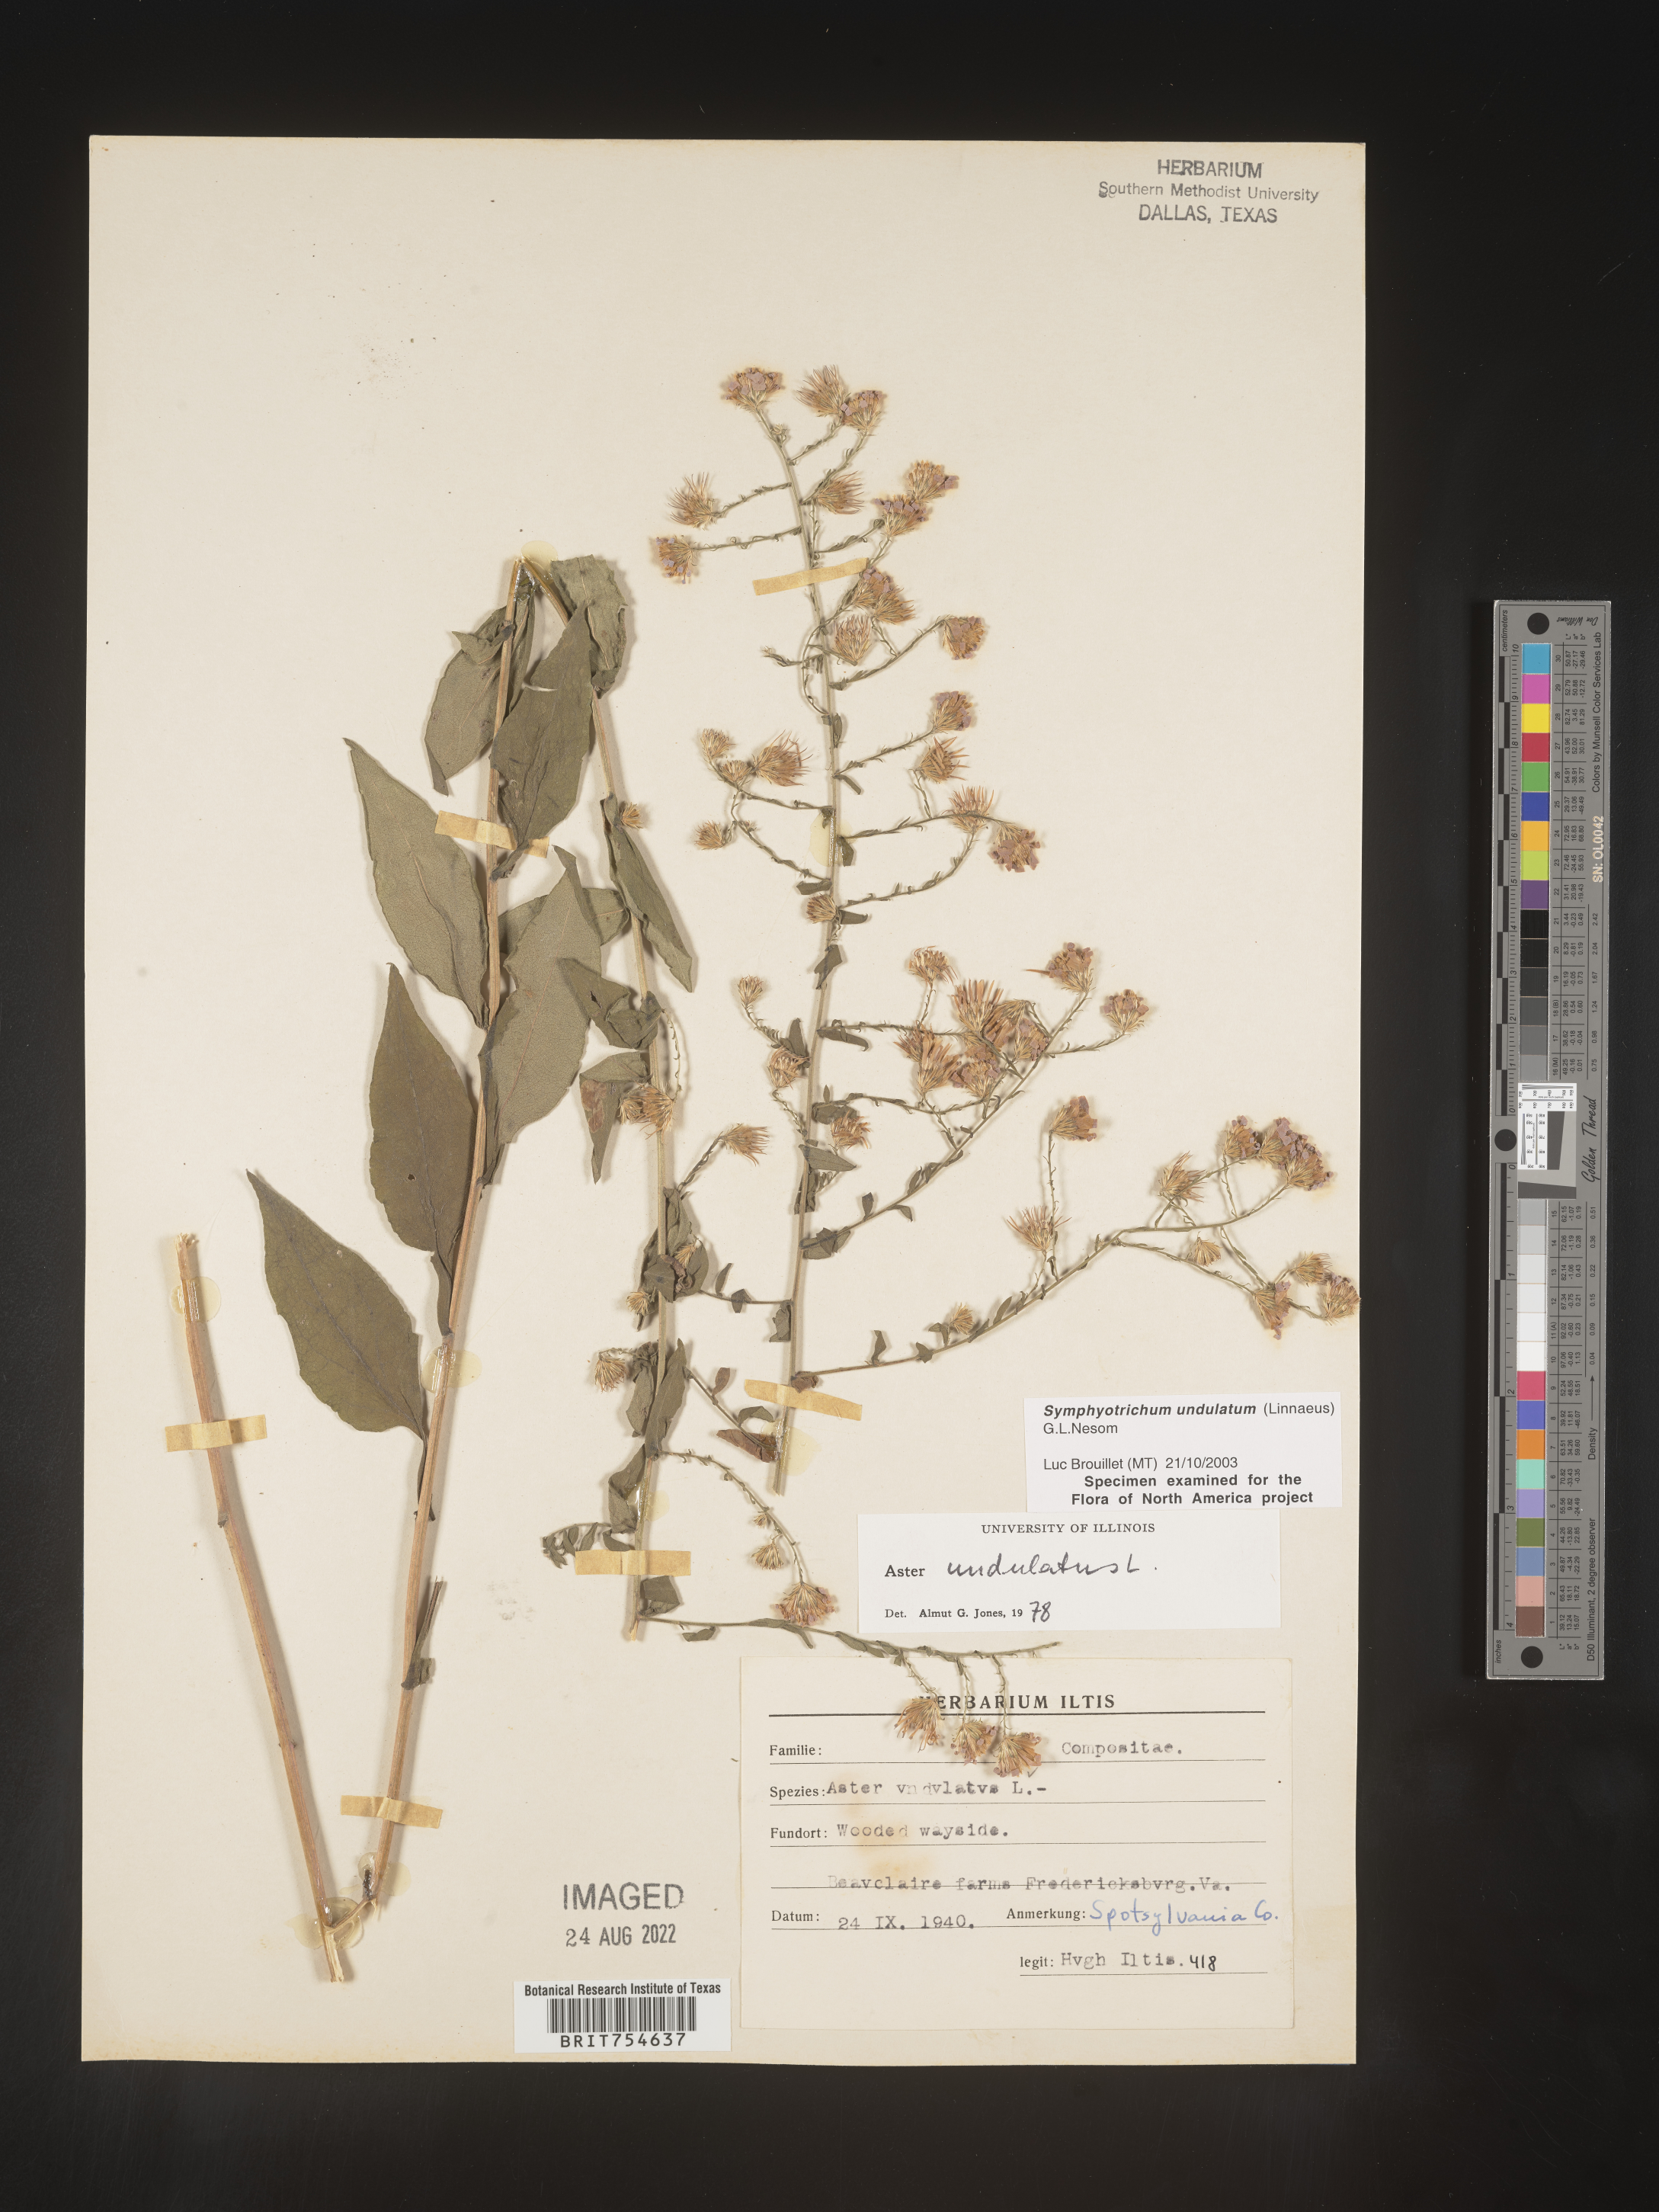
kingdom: Plantae
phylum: Tracheophyta
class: Magnoliopsida
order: Asterales
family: Asteraceae
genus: Symphyotrichum
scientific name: Symphyotrichum undulatum
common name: Clasping heart-leaf aster
